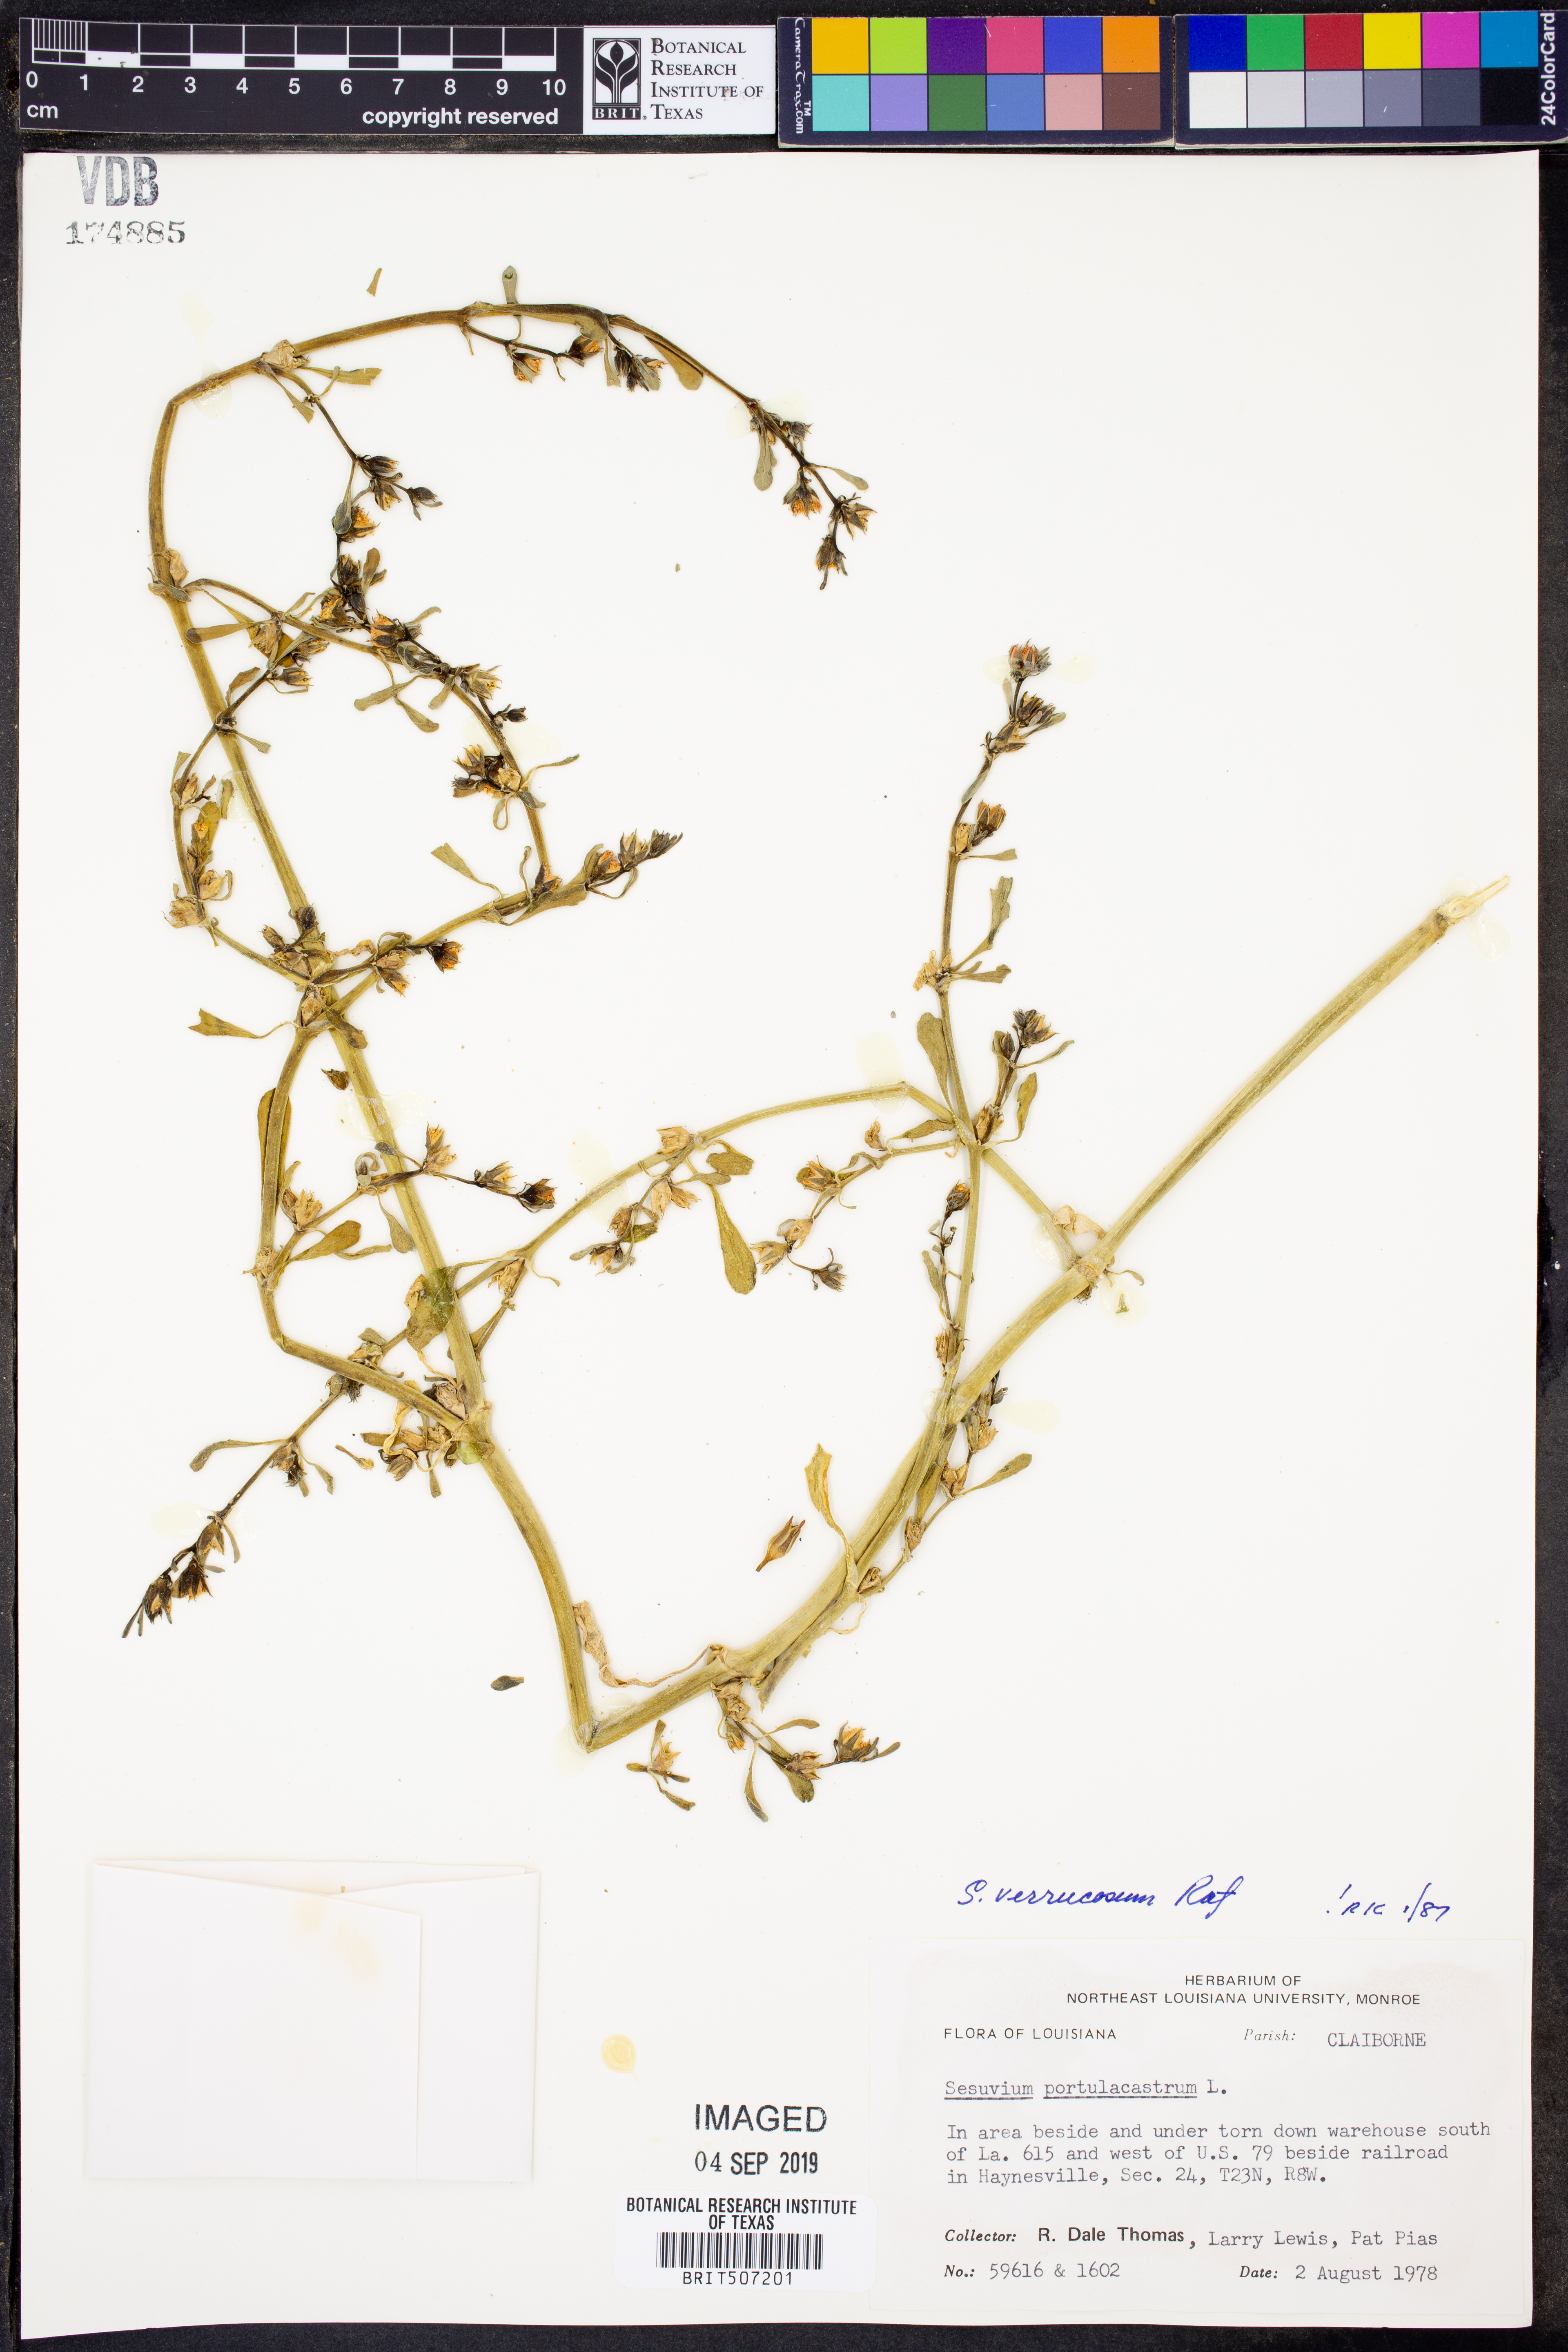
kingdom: Plantae
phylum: Tracheophyta
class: Magnoliopsida
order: Caryophyllales
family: Aizoaceae
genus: Sesuvium
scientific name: Sesuvium revolutifolium
